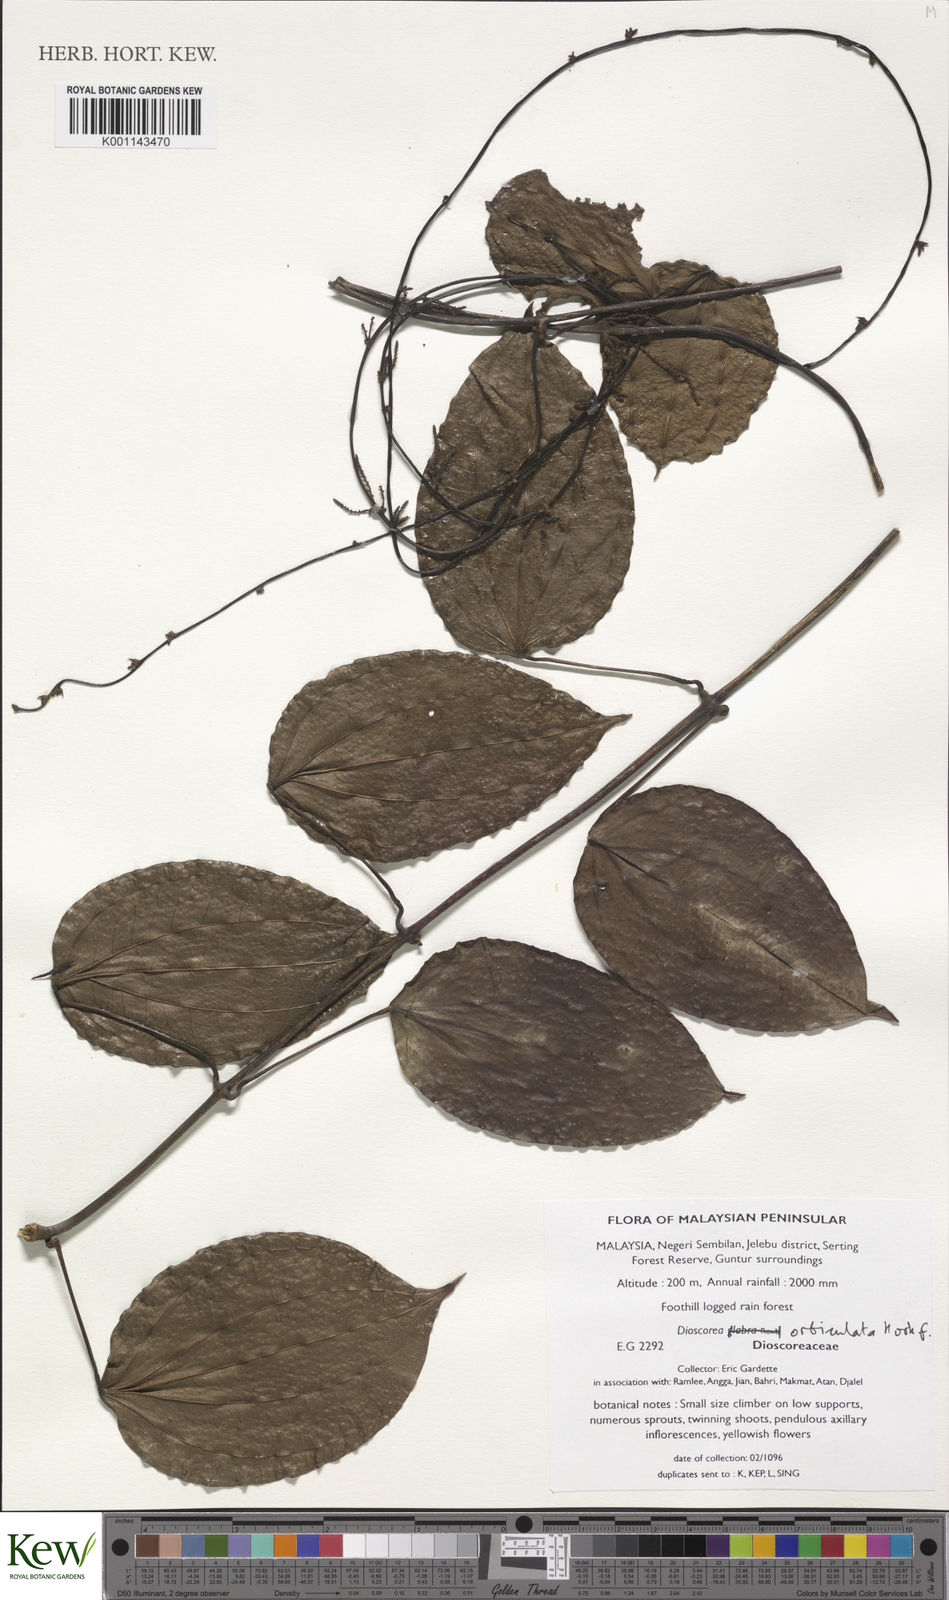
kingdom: Plantae
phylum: Tracheophyta
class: Liliopsida
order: Dioscoreales
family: Dioscoreaceae
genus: Dioscorea
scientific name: Dioscorea orbiculata
